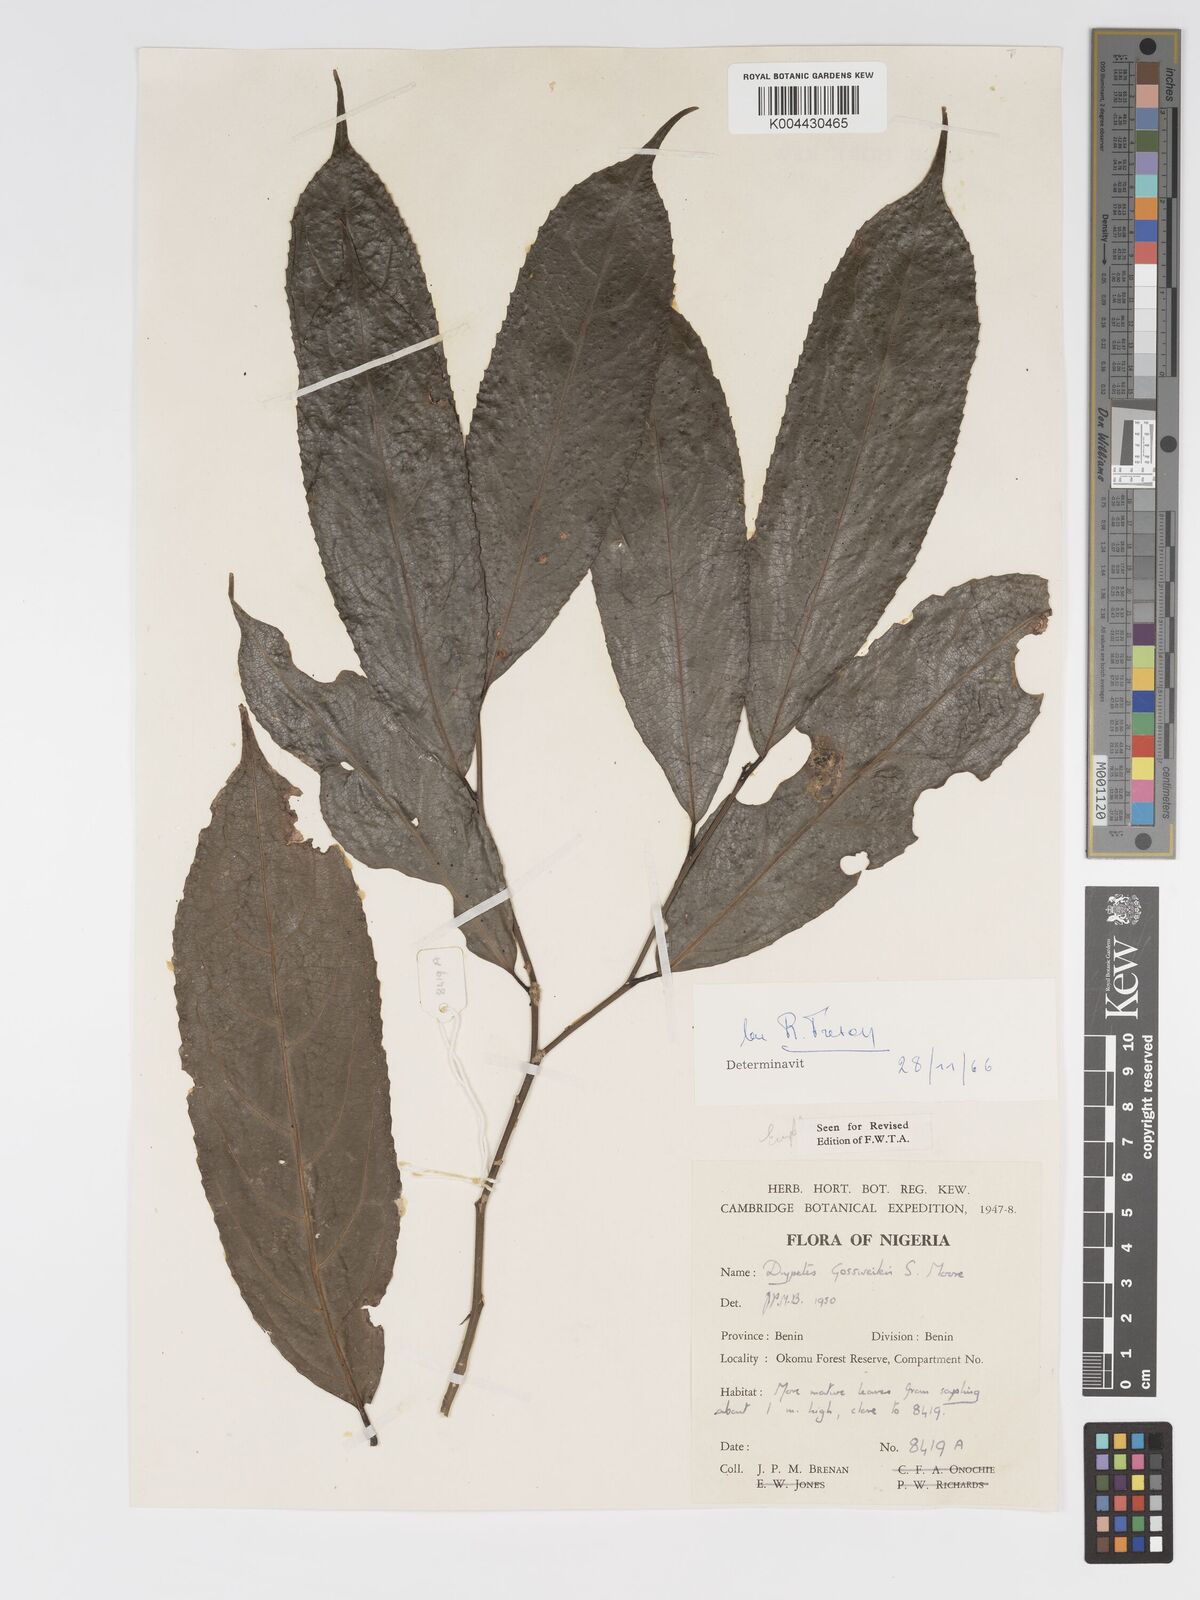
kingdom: Plantae
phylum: Tracheophyta
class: Magnoliopsida
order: Malpighiales
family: Putranjivaceae
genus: Drypetes
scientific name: Drypetes gossweileri
